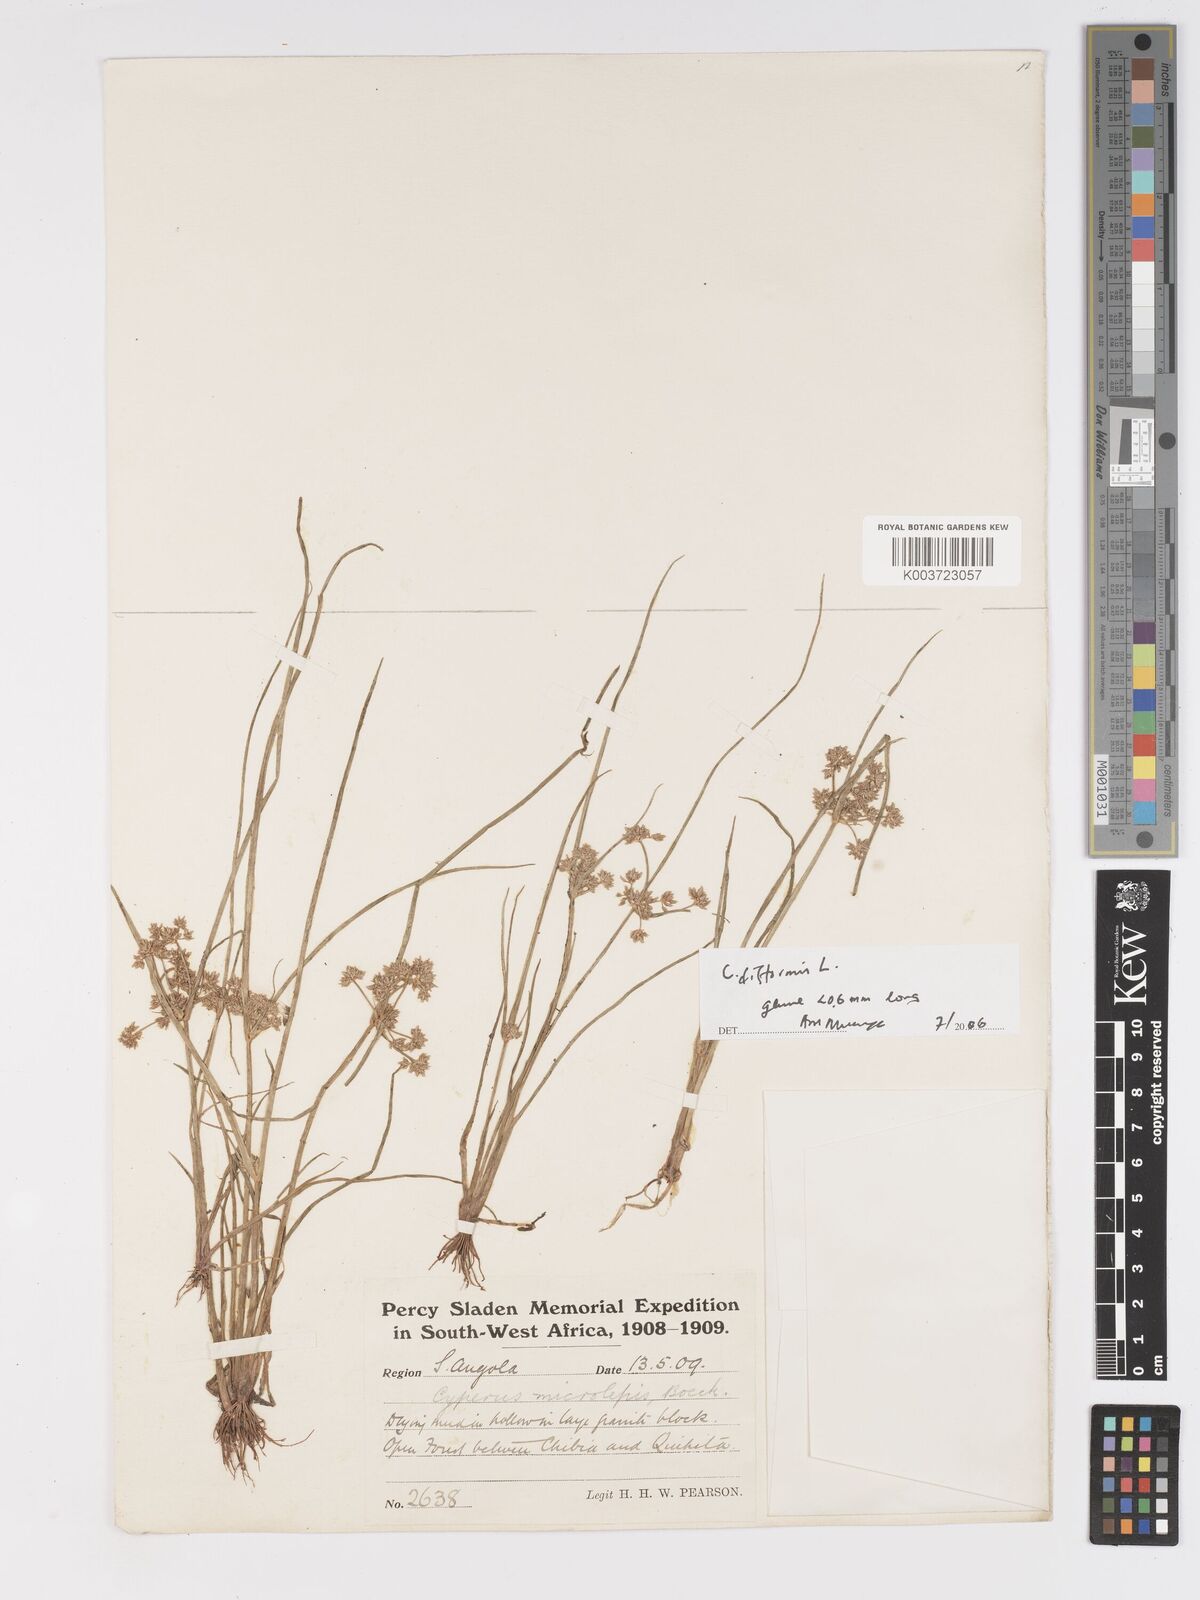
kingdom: Plantae
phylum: Tracheophyta
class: Liliopsida
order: Poales
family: Cyperaceae
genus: Cyperus
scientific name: Cyperus submicrolepis
